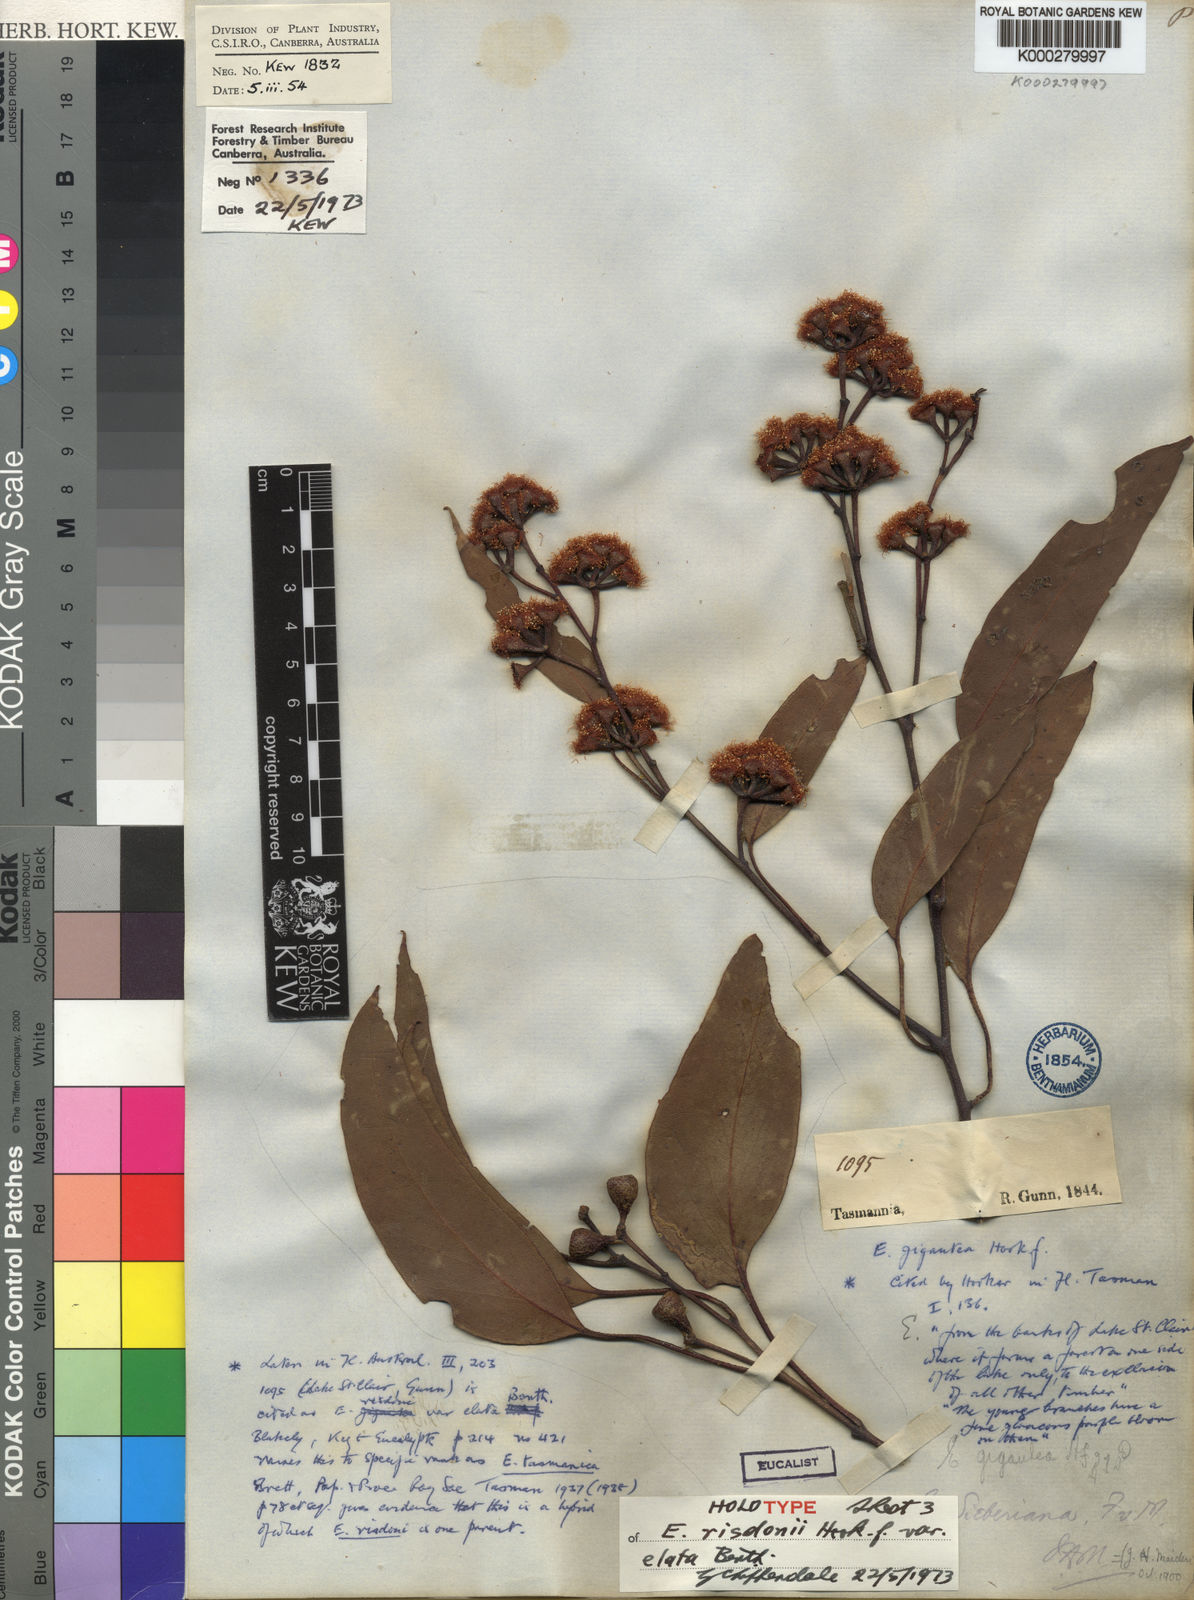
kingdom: Plantae
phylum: Tracheophyta
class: Magnoliopsida
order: Myrtales
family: Myrtaceae
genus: Eucalyptus
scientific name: Eucalyptus tenuiramis
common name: Silver peppermint
